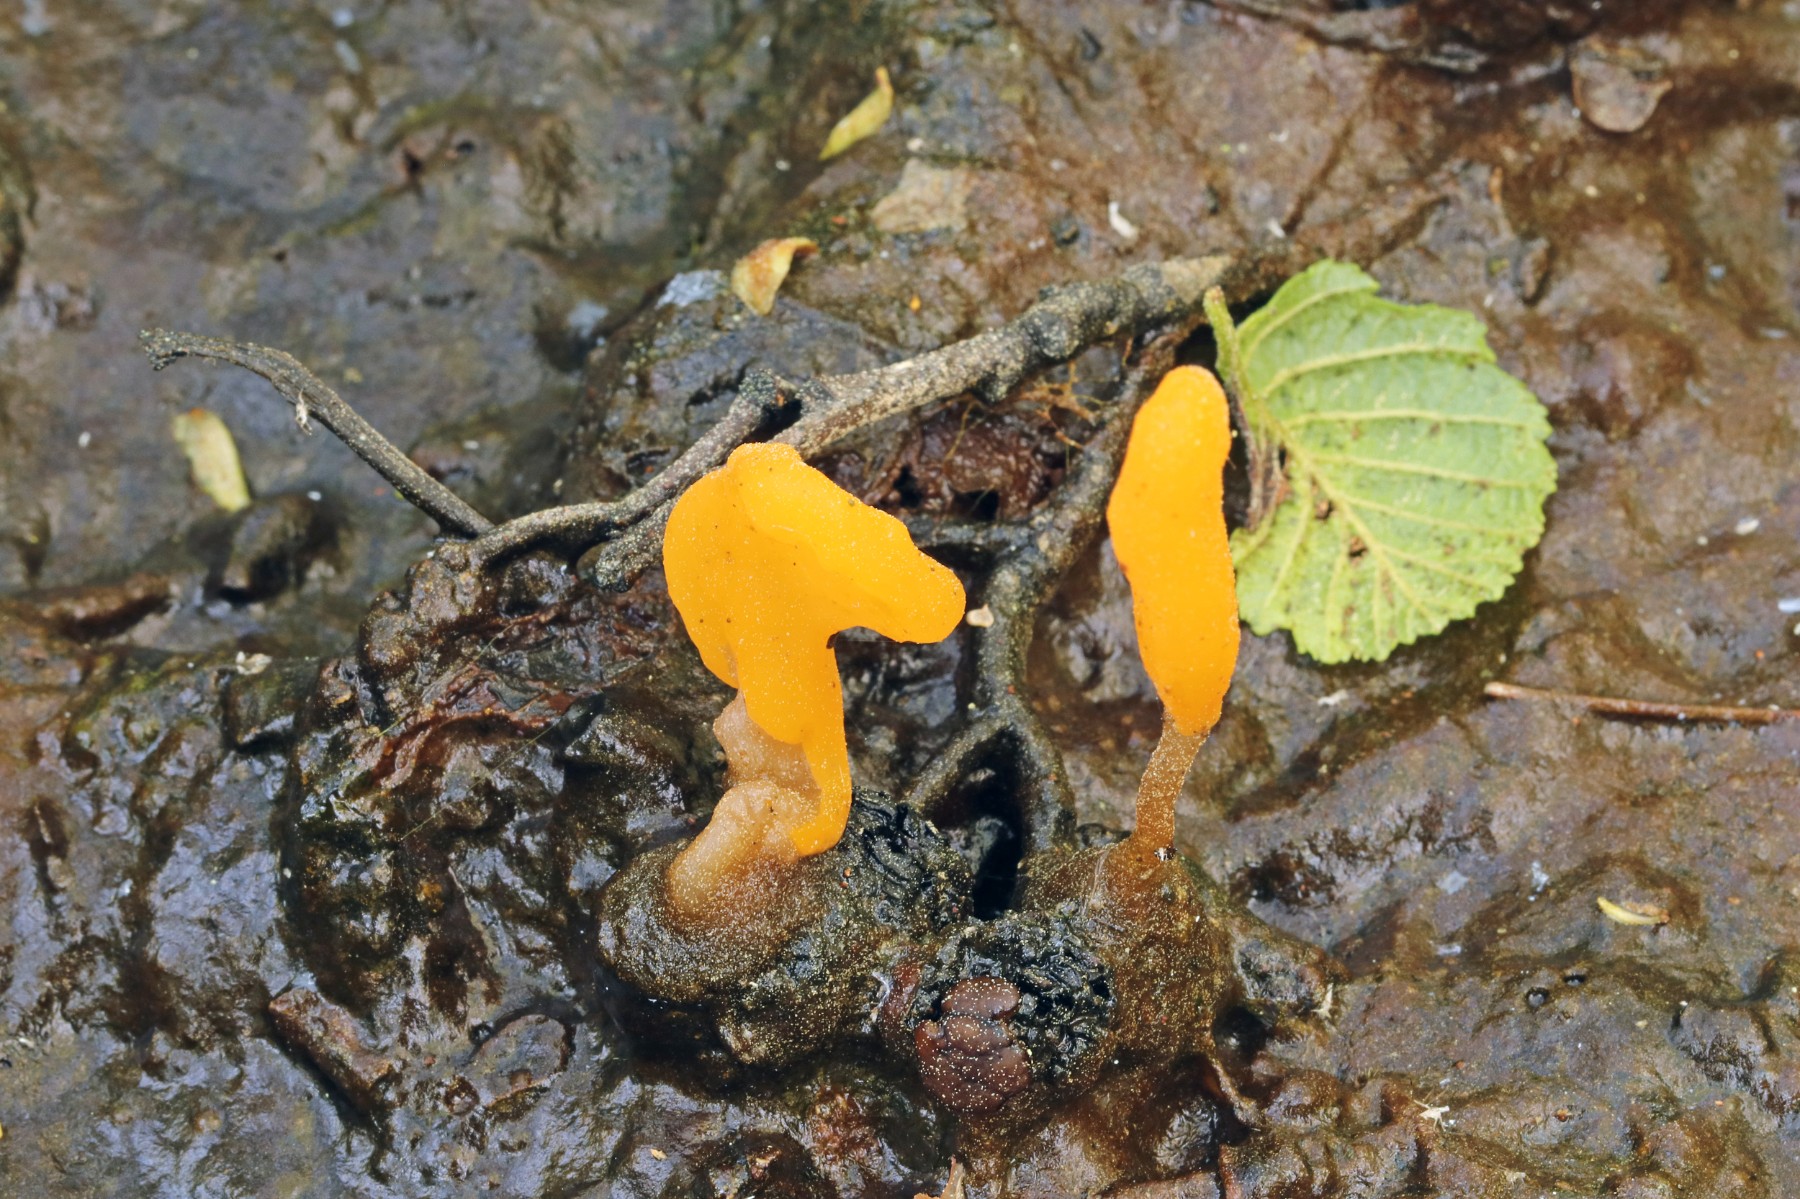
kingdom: Fungi
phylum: Ascomycota
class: Leotiomycetes
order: Helotiales
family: Cenangiaceae
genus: Mitrula
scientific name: Mitrula paludosa
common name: gul nøkketunge
